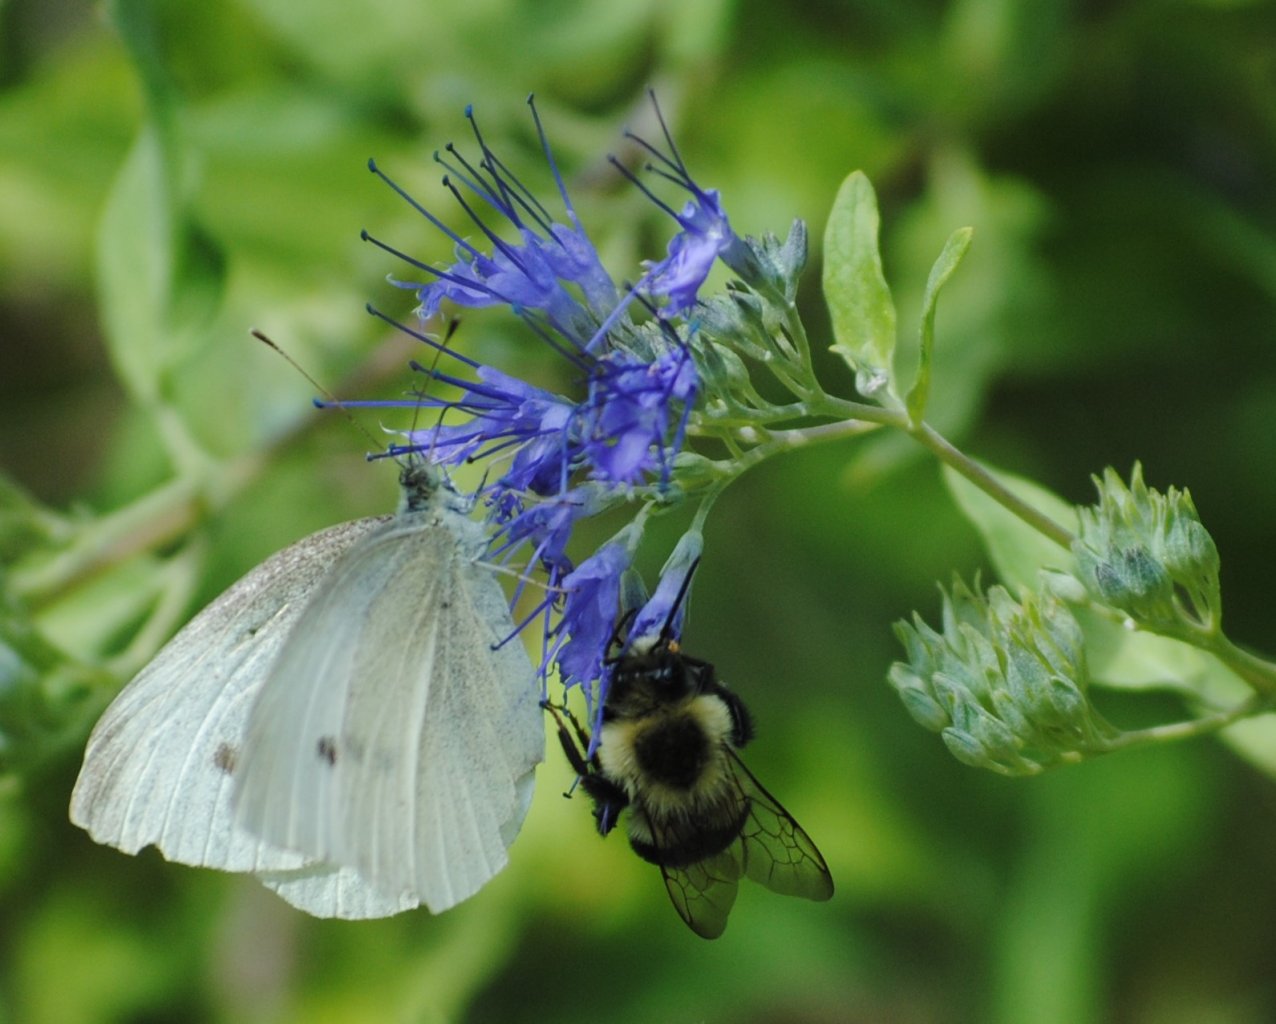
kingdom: Animalia
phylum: Arthropoda
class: Insecta
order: Lepidoptera
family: Pieridae
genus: Pieris
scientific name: Pieris rapae
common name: Cabbage White
